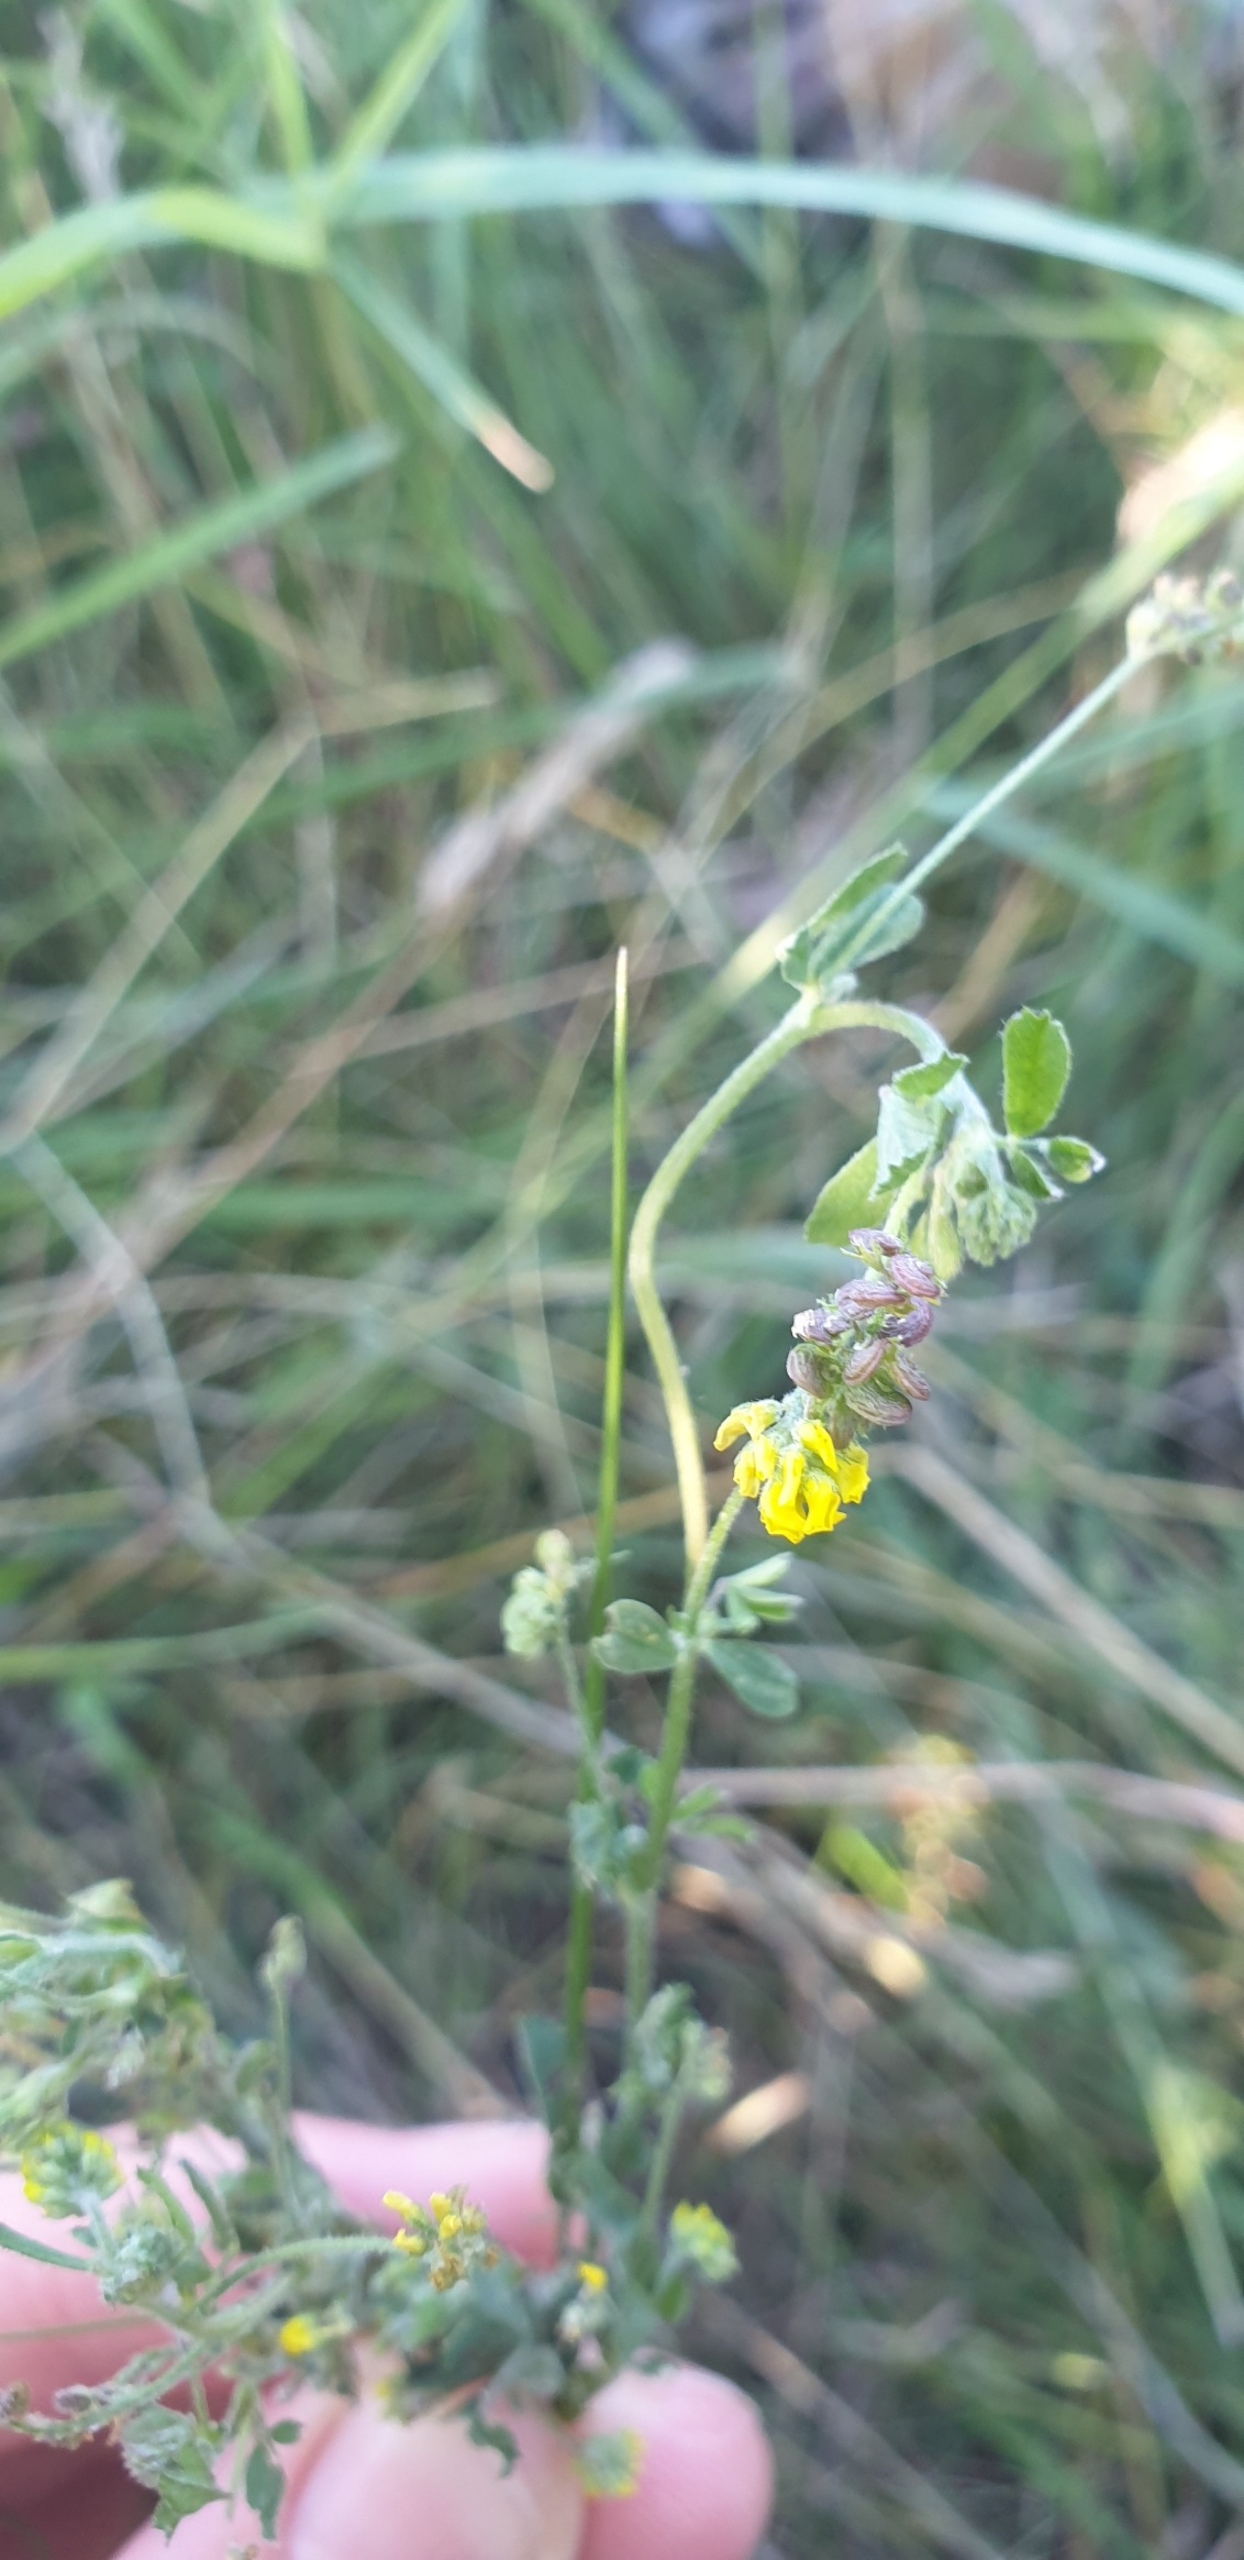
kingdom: Plantae
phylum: Tracheophyta
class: Magnoliopsida
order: Fabales
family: Fabaceae
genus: Medicago
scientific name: Medicago lupulina
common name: Humle-sneglebælg
